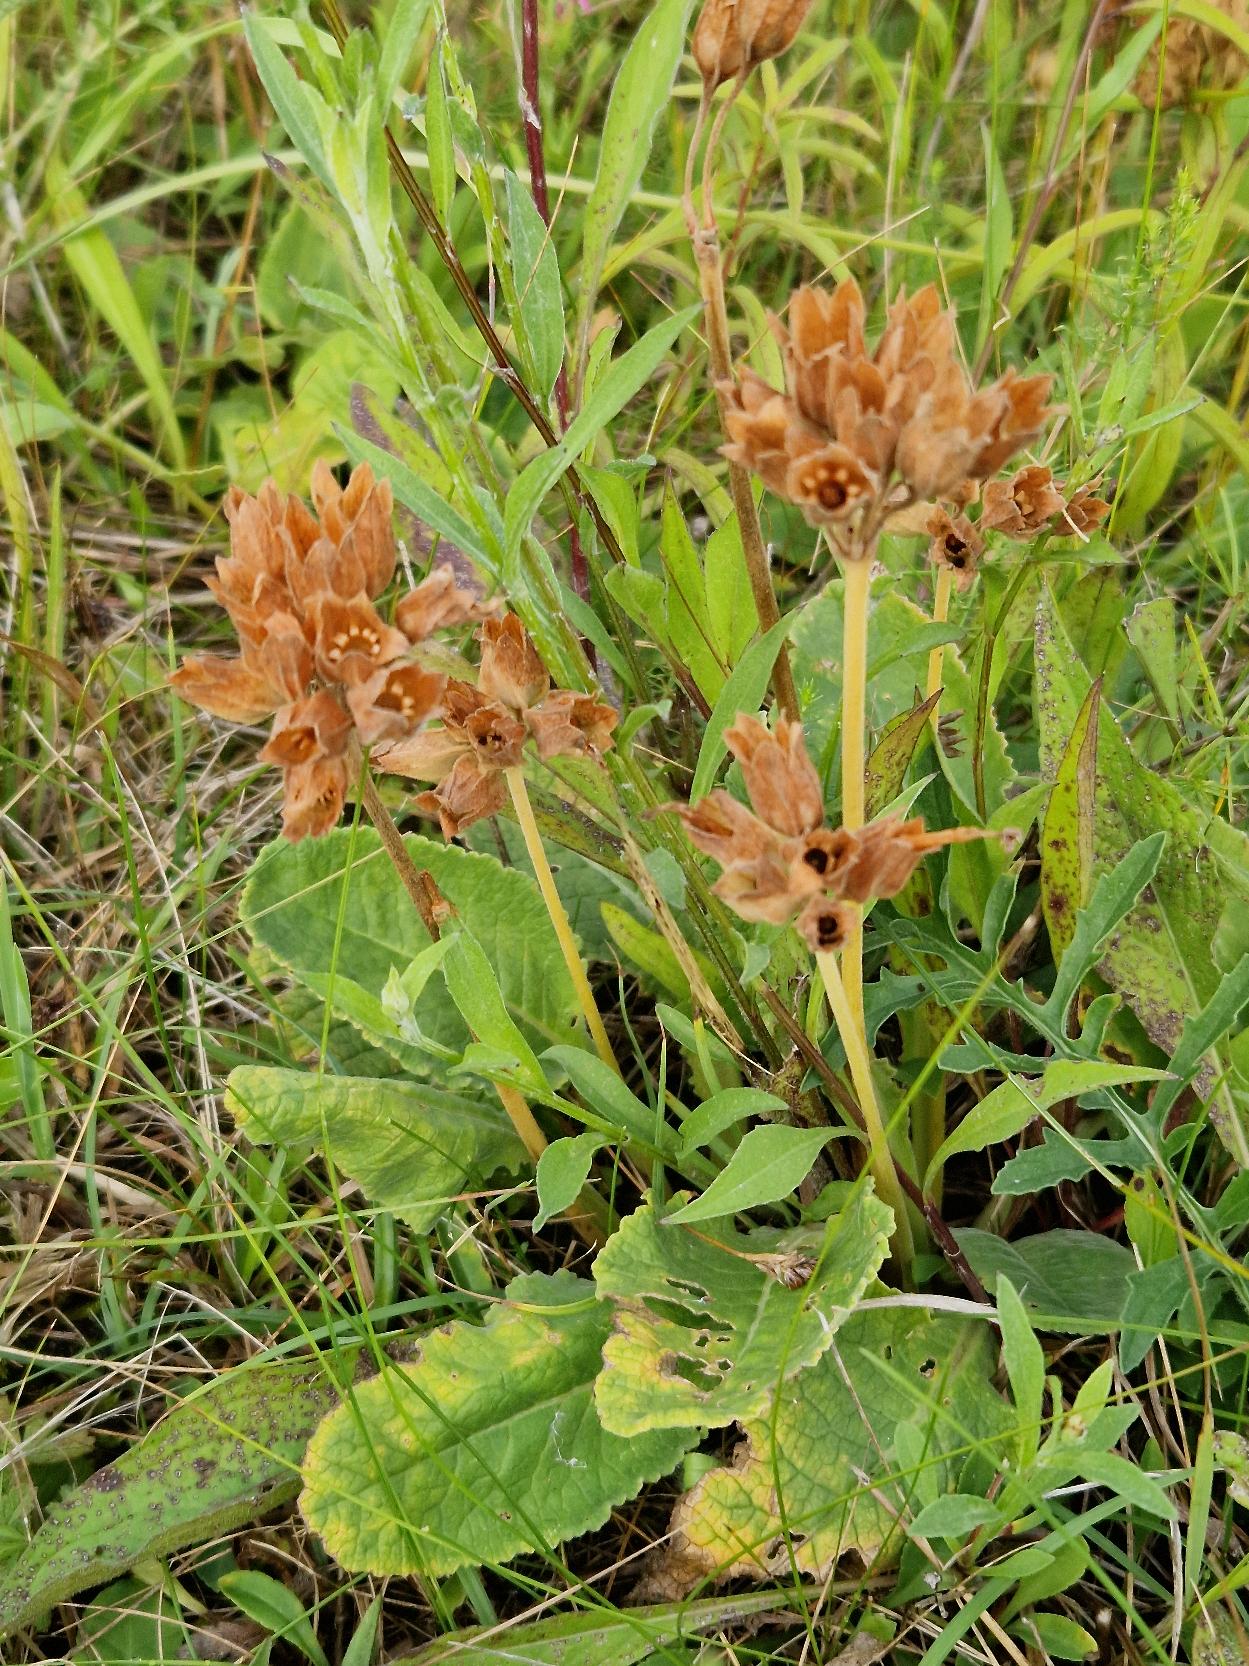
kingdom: Plantae
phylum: Tracheophyta
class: Magnoliopsida
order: Ericales
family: Primulaceae
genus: Primula
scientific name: Primula veris
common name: Hulkravet kodriver
